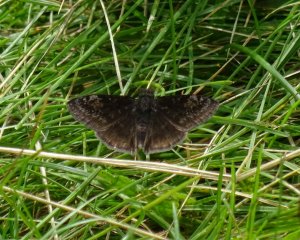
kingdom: Animalia
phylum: Arthropoda
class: Insecta
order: Lepidoptera
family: Hesperiidae
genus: Gesta
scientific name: Gesta
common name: Columbine Duskywing
